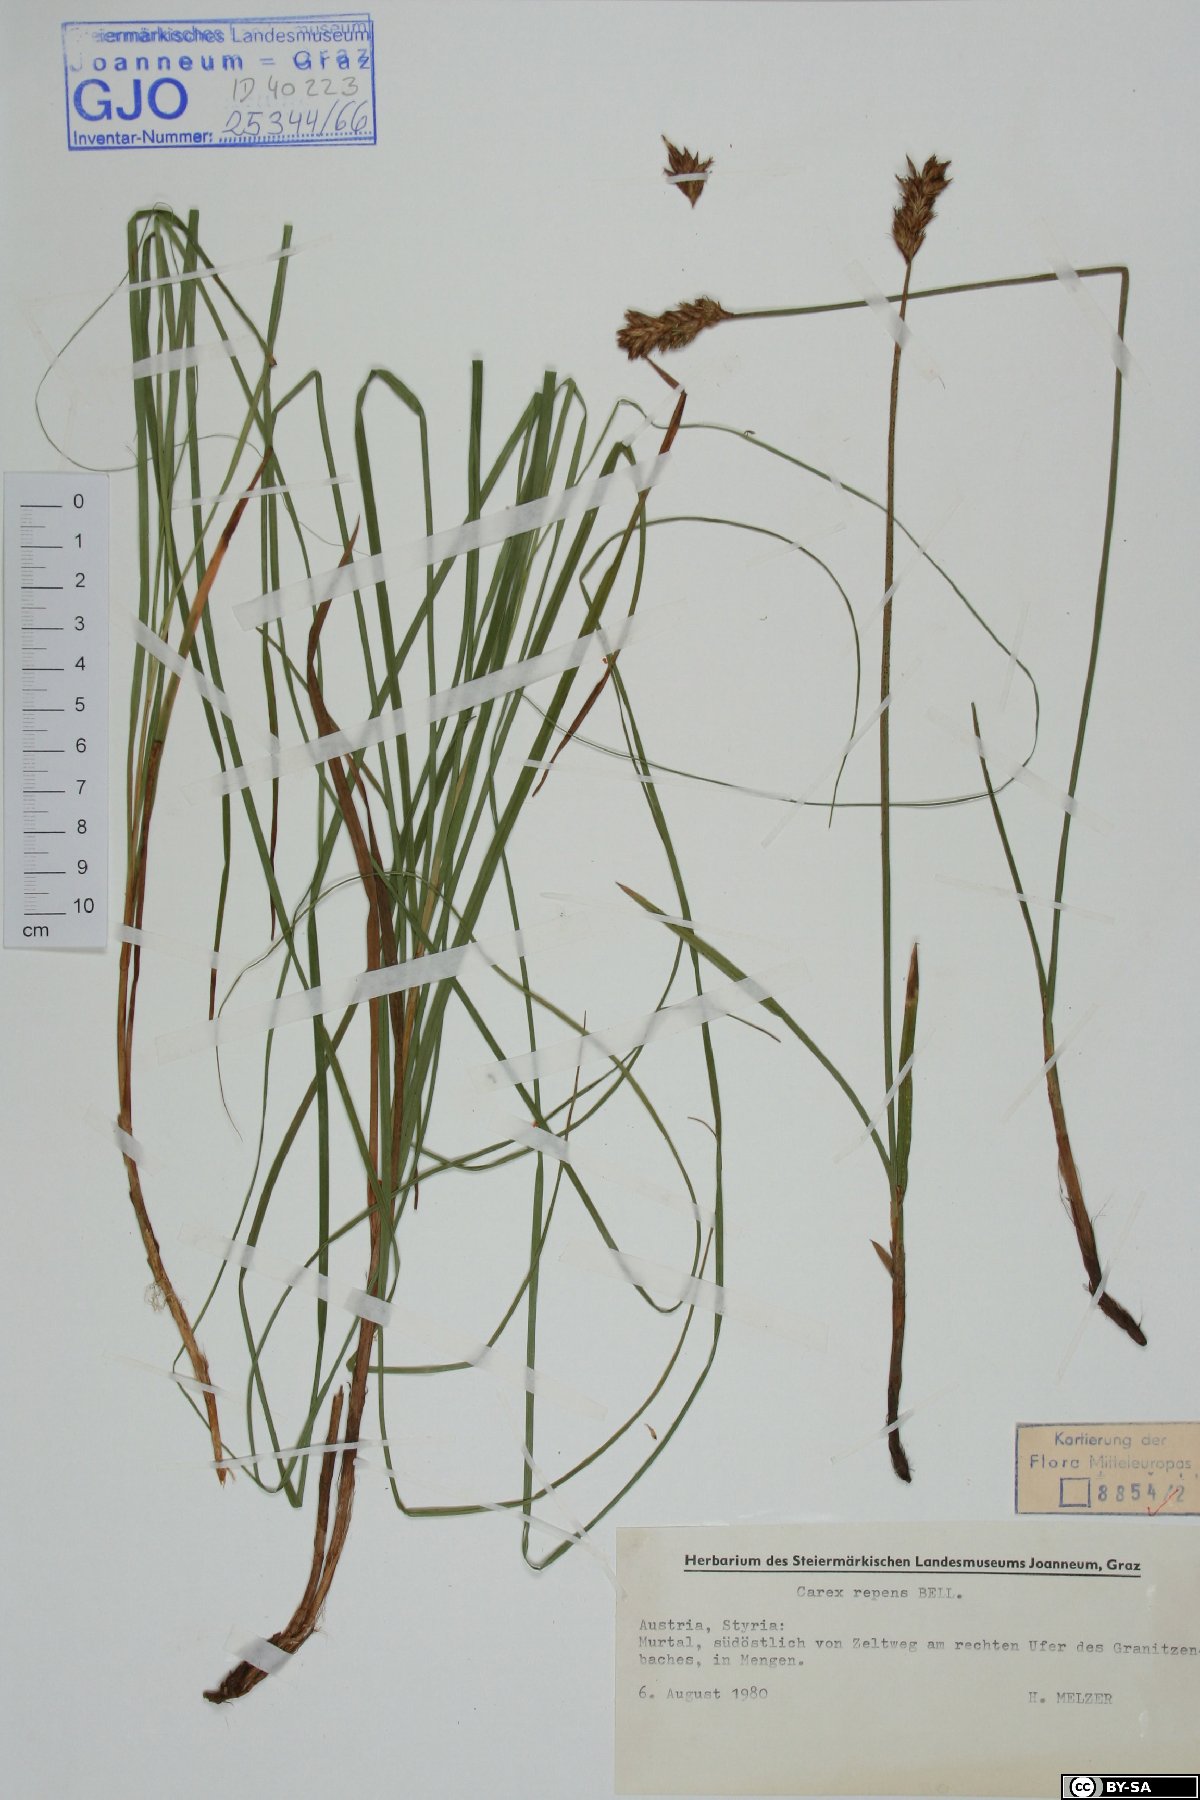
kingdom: Plantae
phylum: Tracheophyta
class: Liliopsida
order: Poales
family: Cyperaceae
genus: Carex
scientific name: Carex repens
